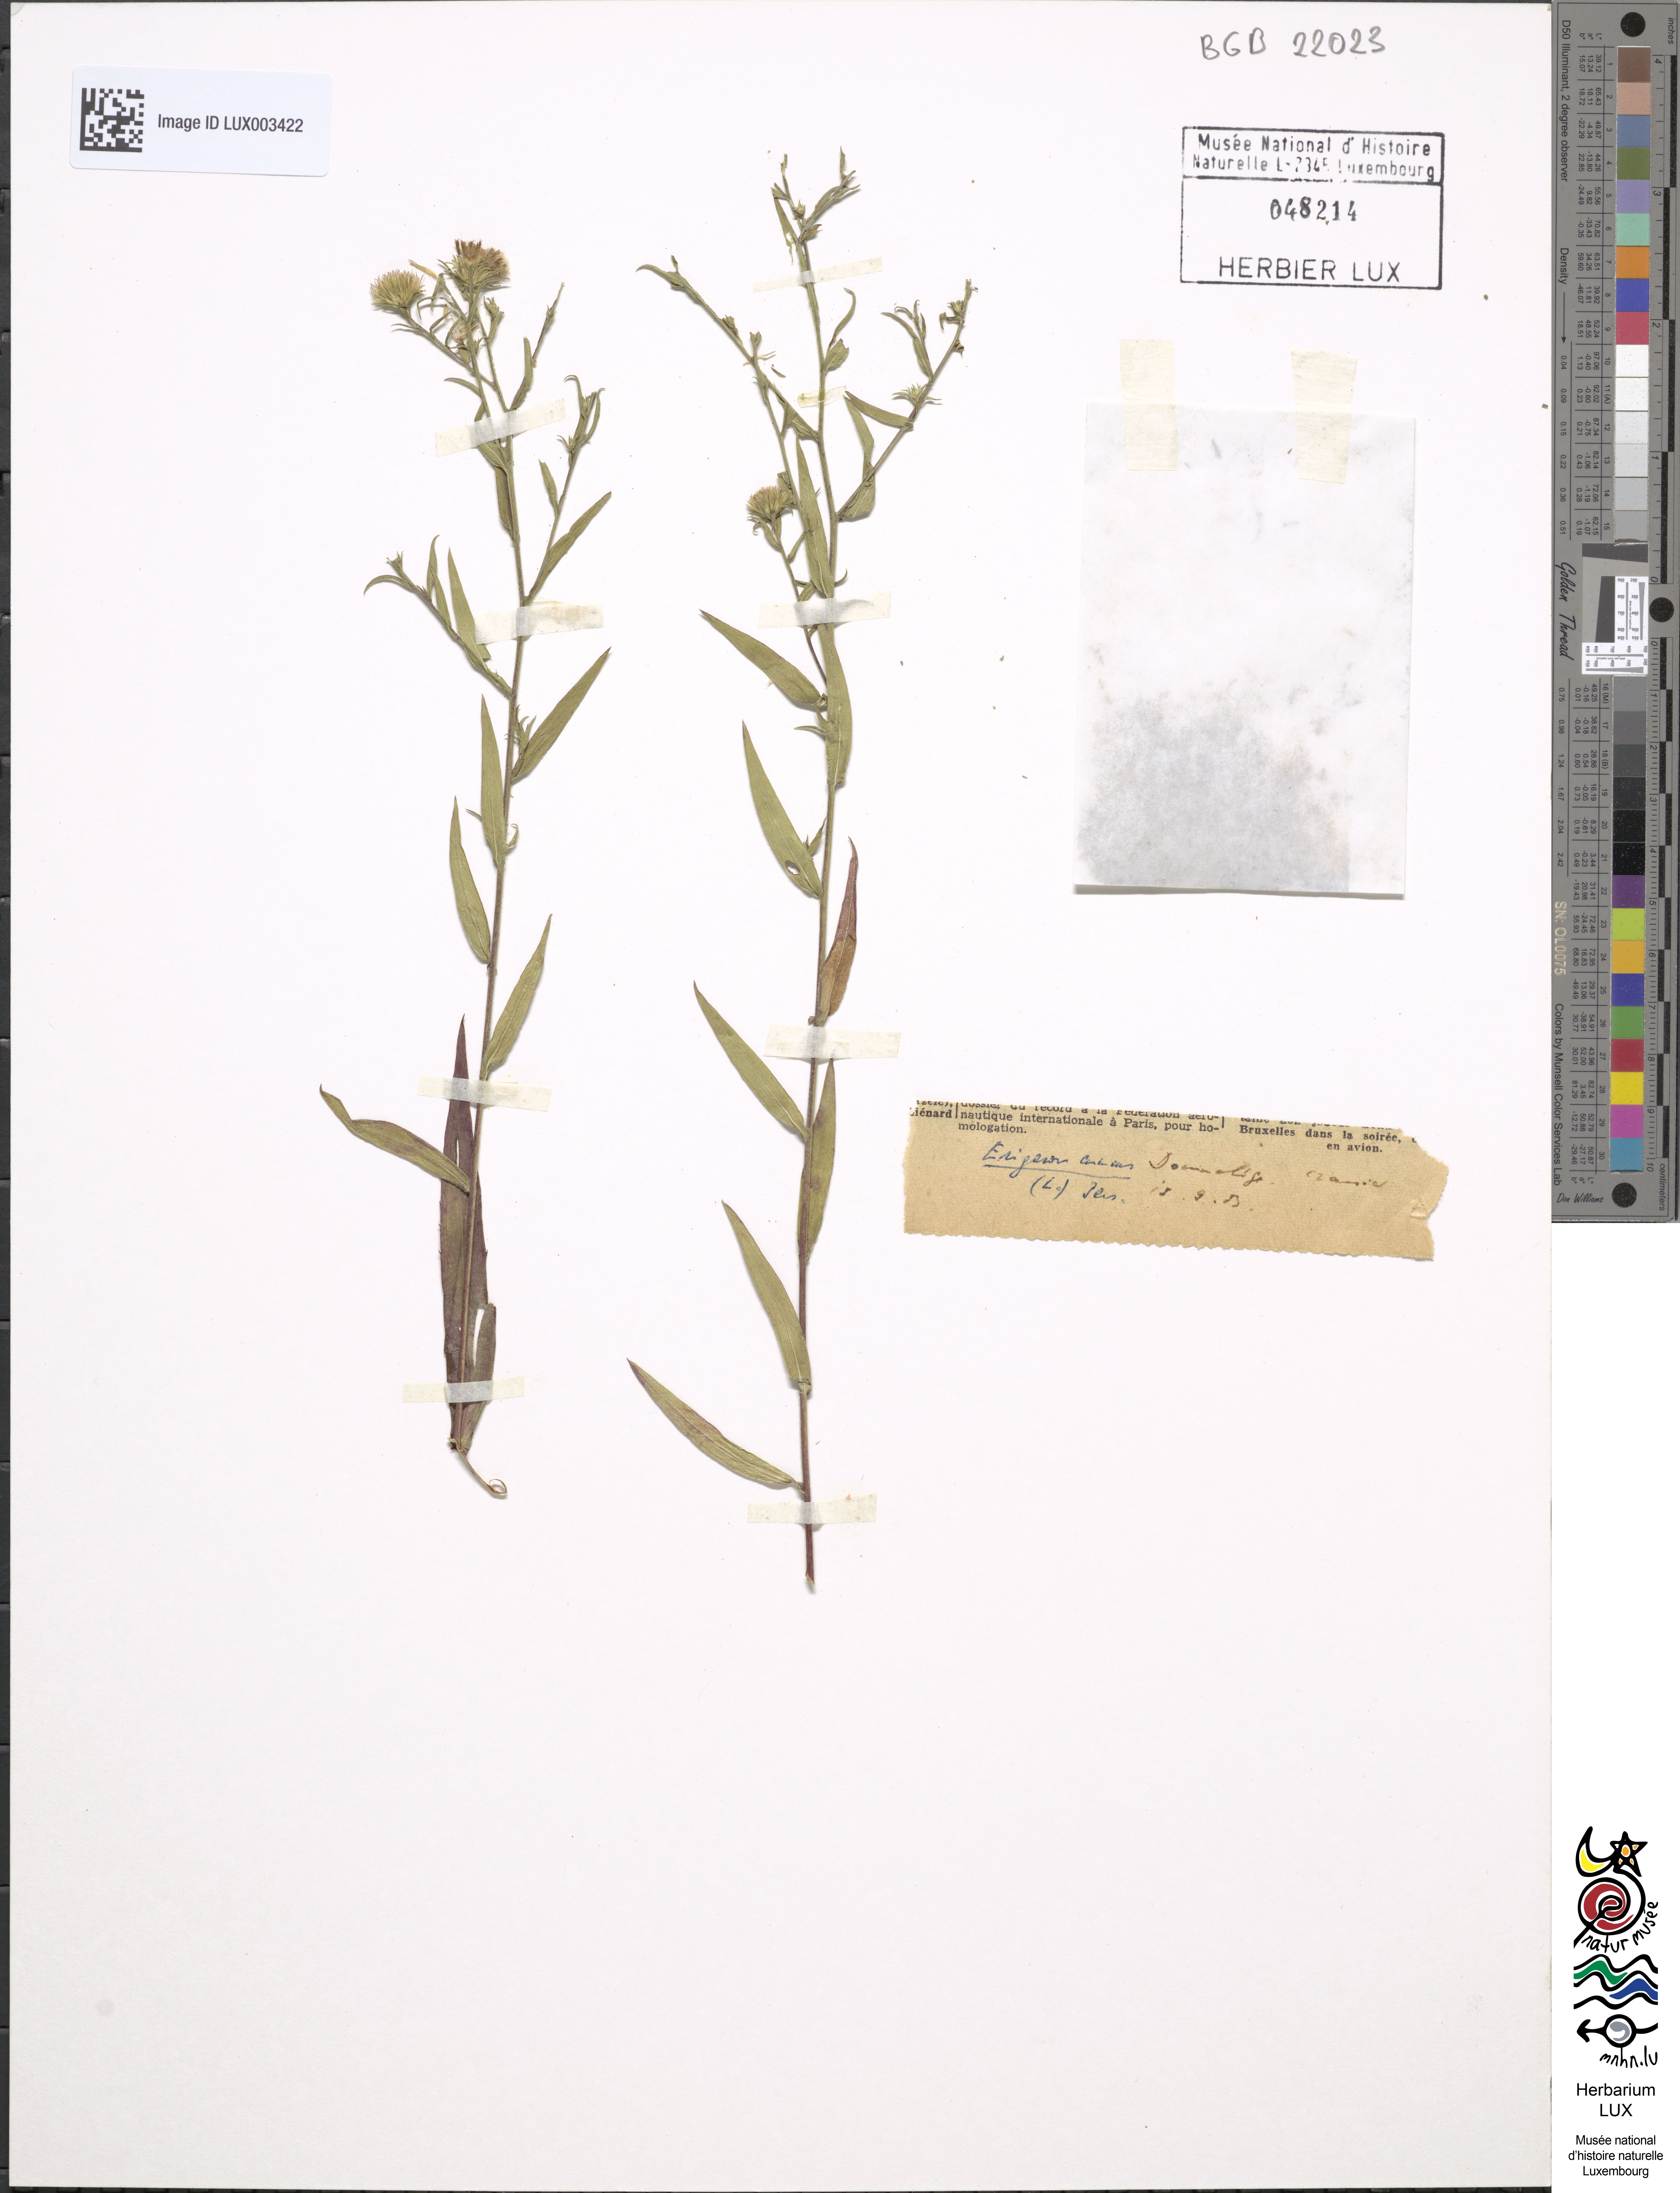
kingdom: Plantae
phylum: Tracheophyta
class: Magnoliopsida
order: Asterales
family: Asteraceae
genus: Erigeron
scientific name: Erigeron annuus
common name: Tall fleabane
